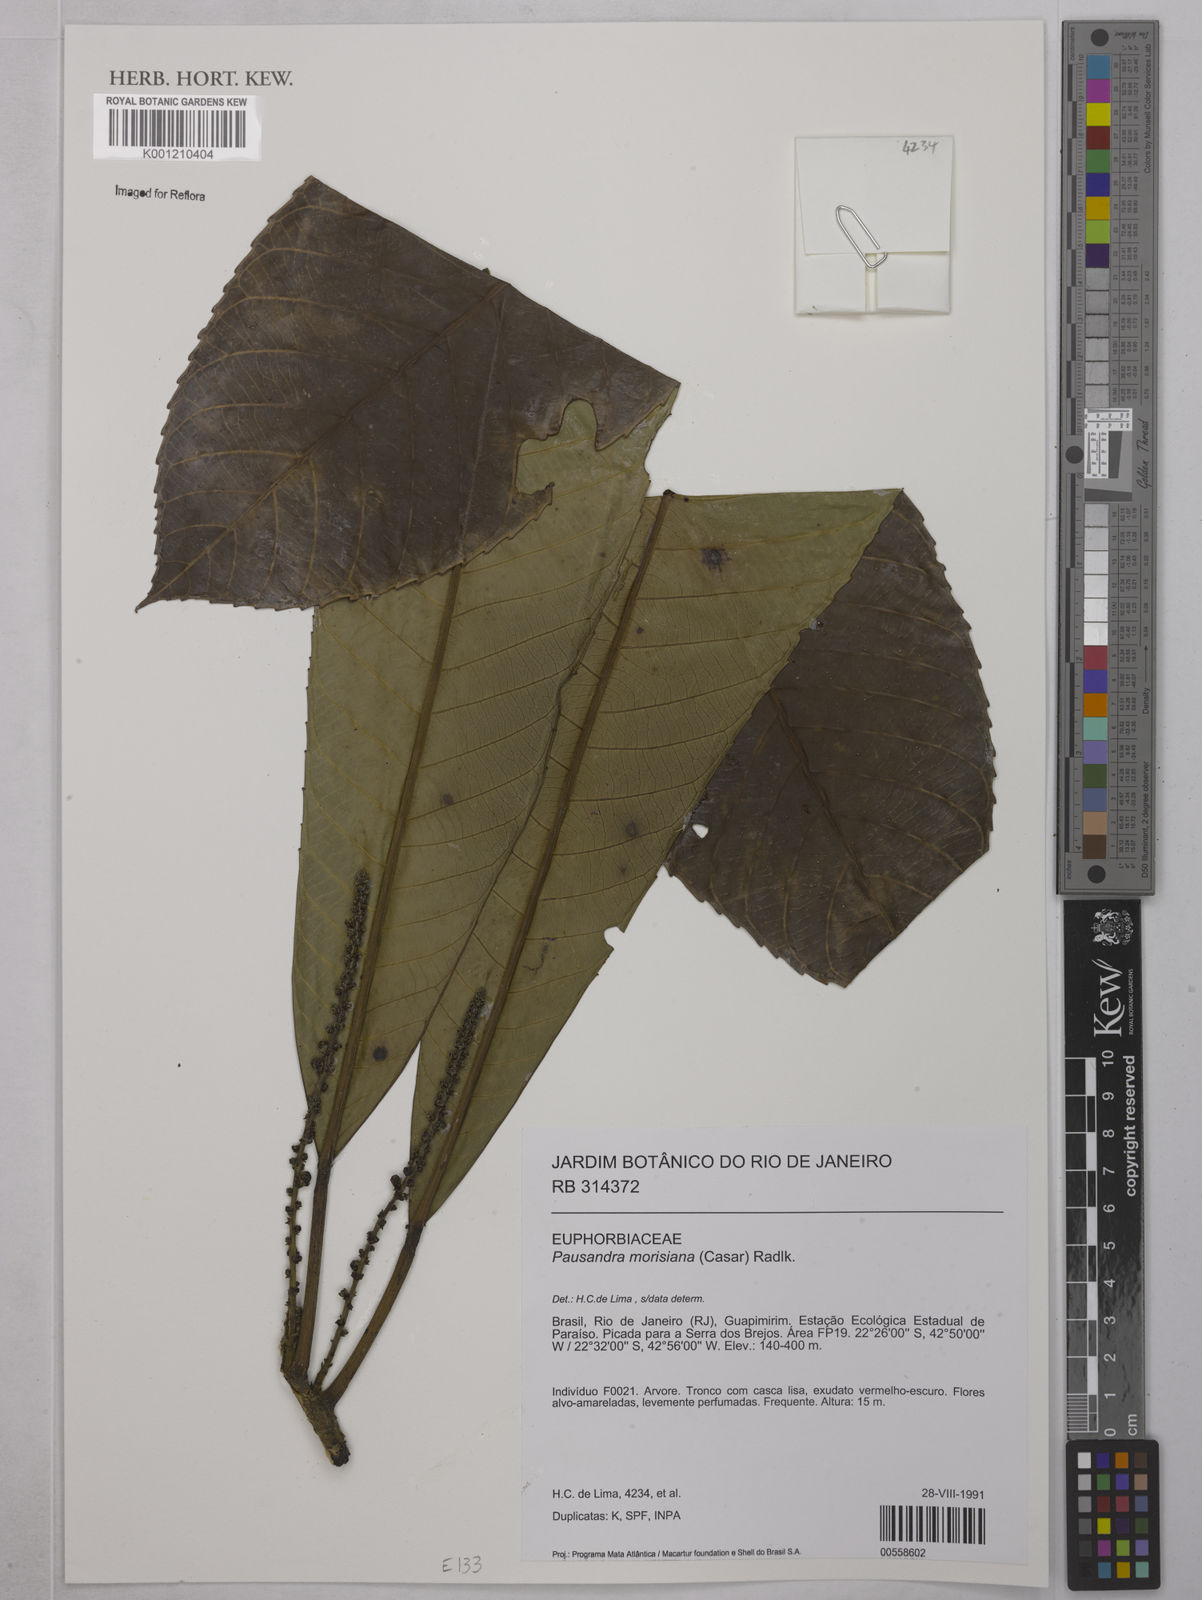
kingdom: Plantae
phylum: Tracheophyta
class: Magnoliopsida
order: Malpighiales
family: Euphorbiaceae
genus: Pausandra
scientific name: Pausandra morisiana
